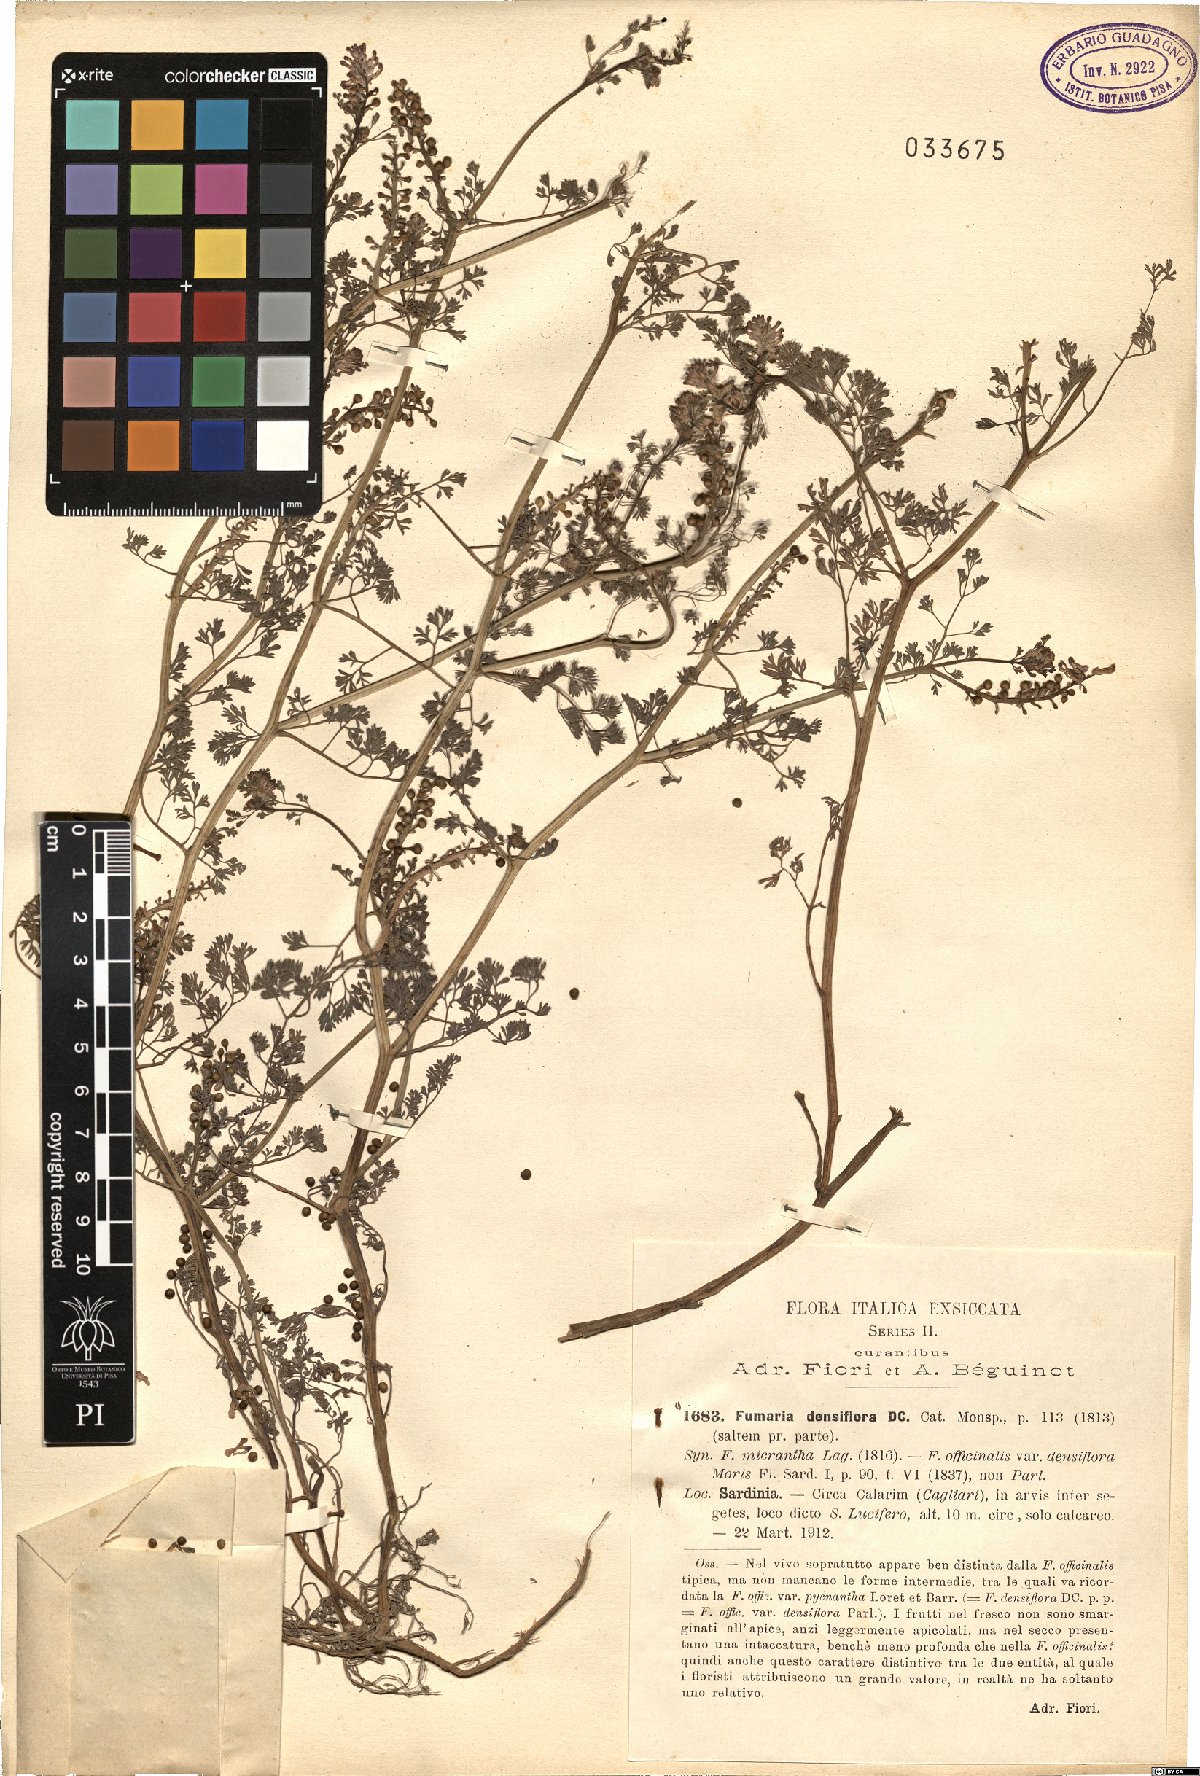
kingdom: Plantae
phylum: Tracheophyta
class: Magnoliopsida
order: Ranunculales
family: Papaveraceae
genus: Fumaria
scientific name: Fumaria densiflora
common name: Dense-flowered fumitory
